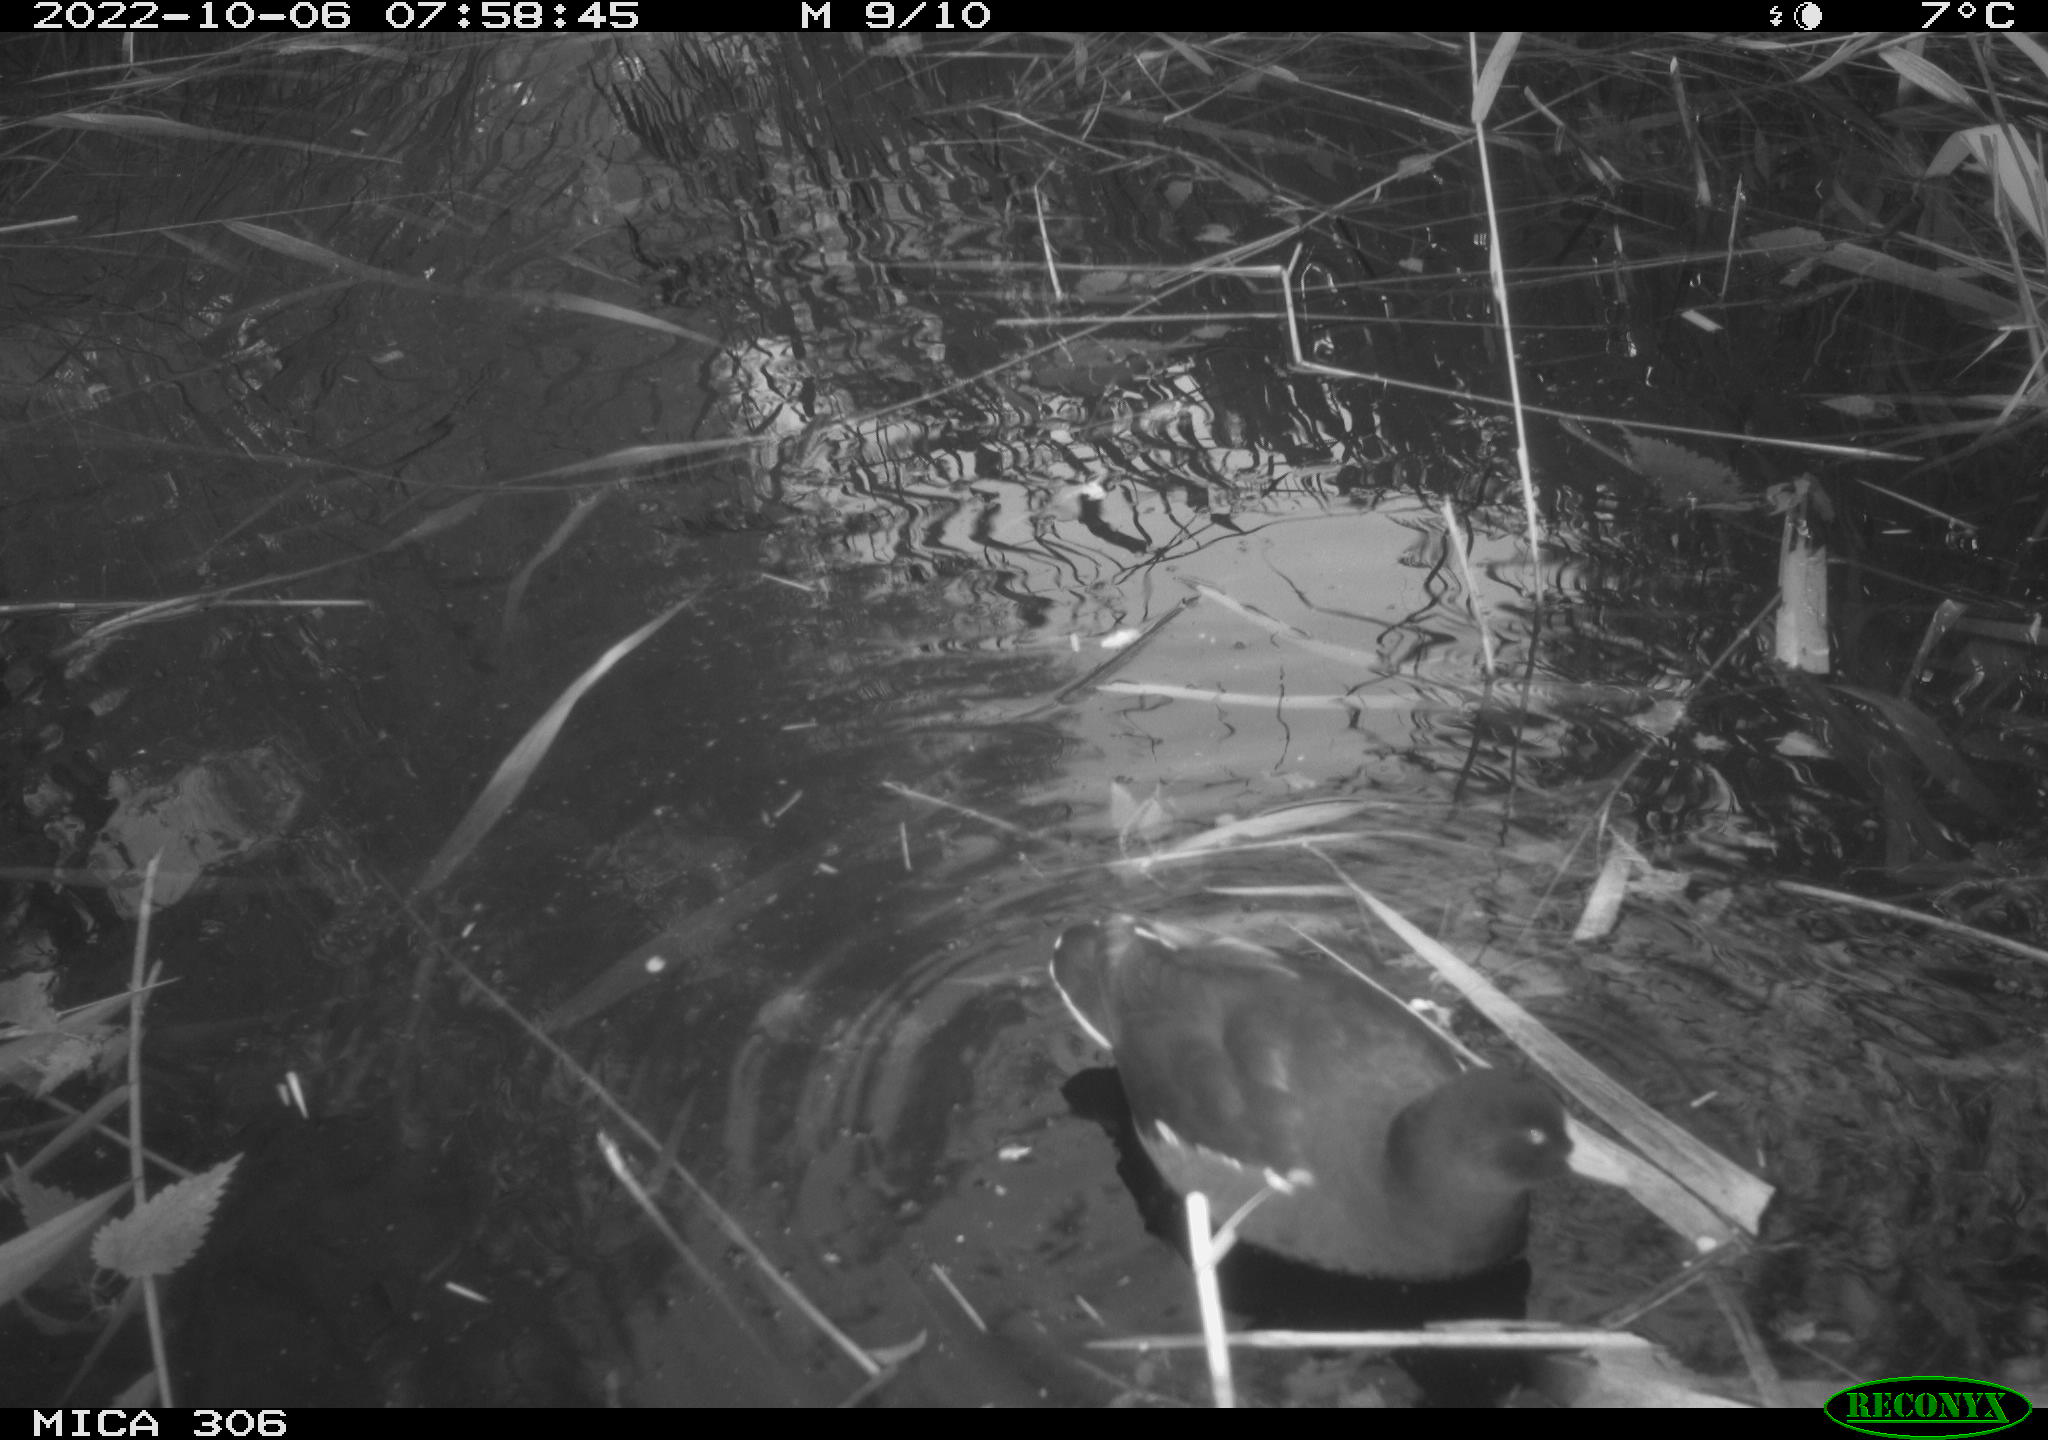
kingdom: Animalia
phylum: Chordata
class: Aves
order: Gruiformes
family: Rallidae
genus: Gallinula
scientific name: Gallinula chloropus
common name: Common moorhen
